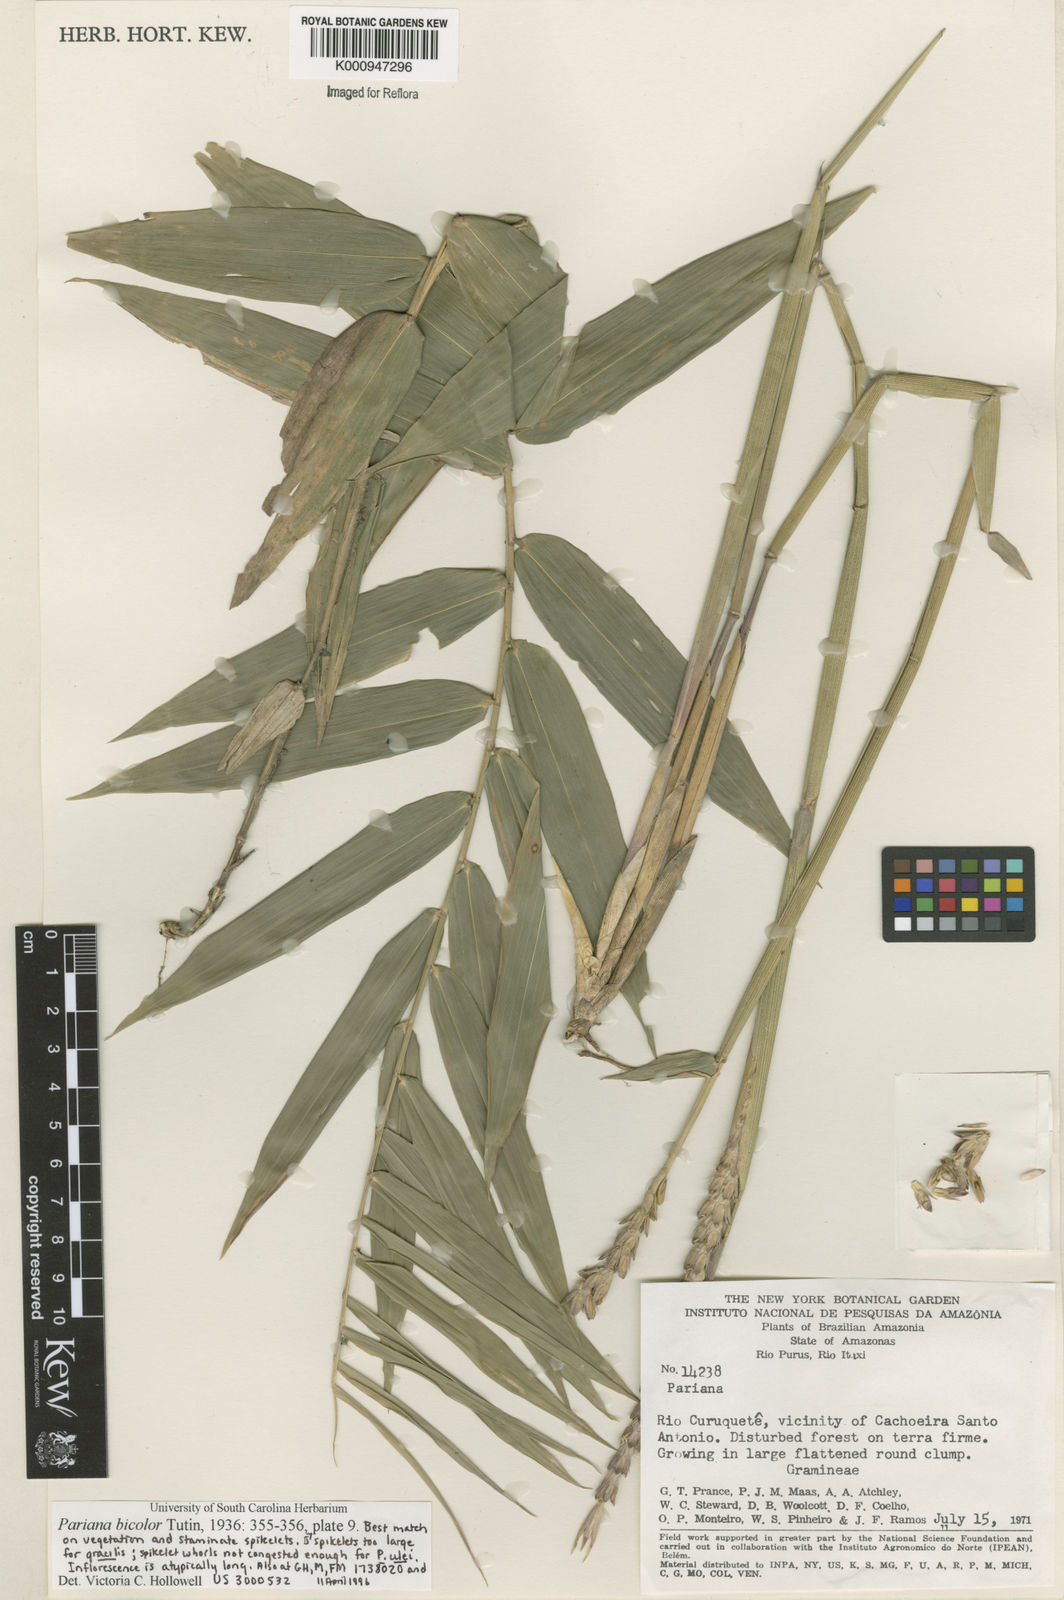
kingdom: Plantae
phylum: Tracheophyta
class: Liliopsida
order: Poales
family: Poaceae
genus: Pariana
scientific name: Pariana bicolor
